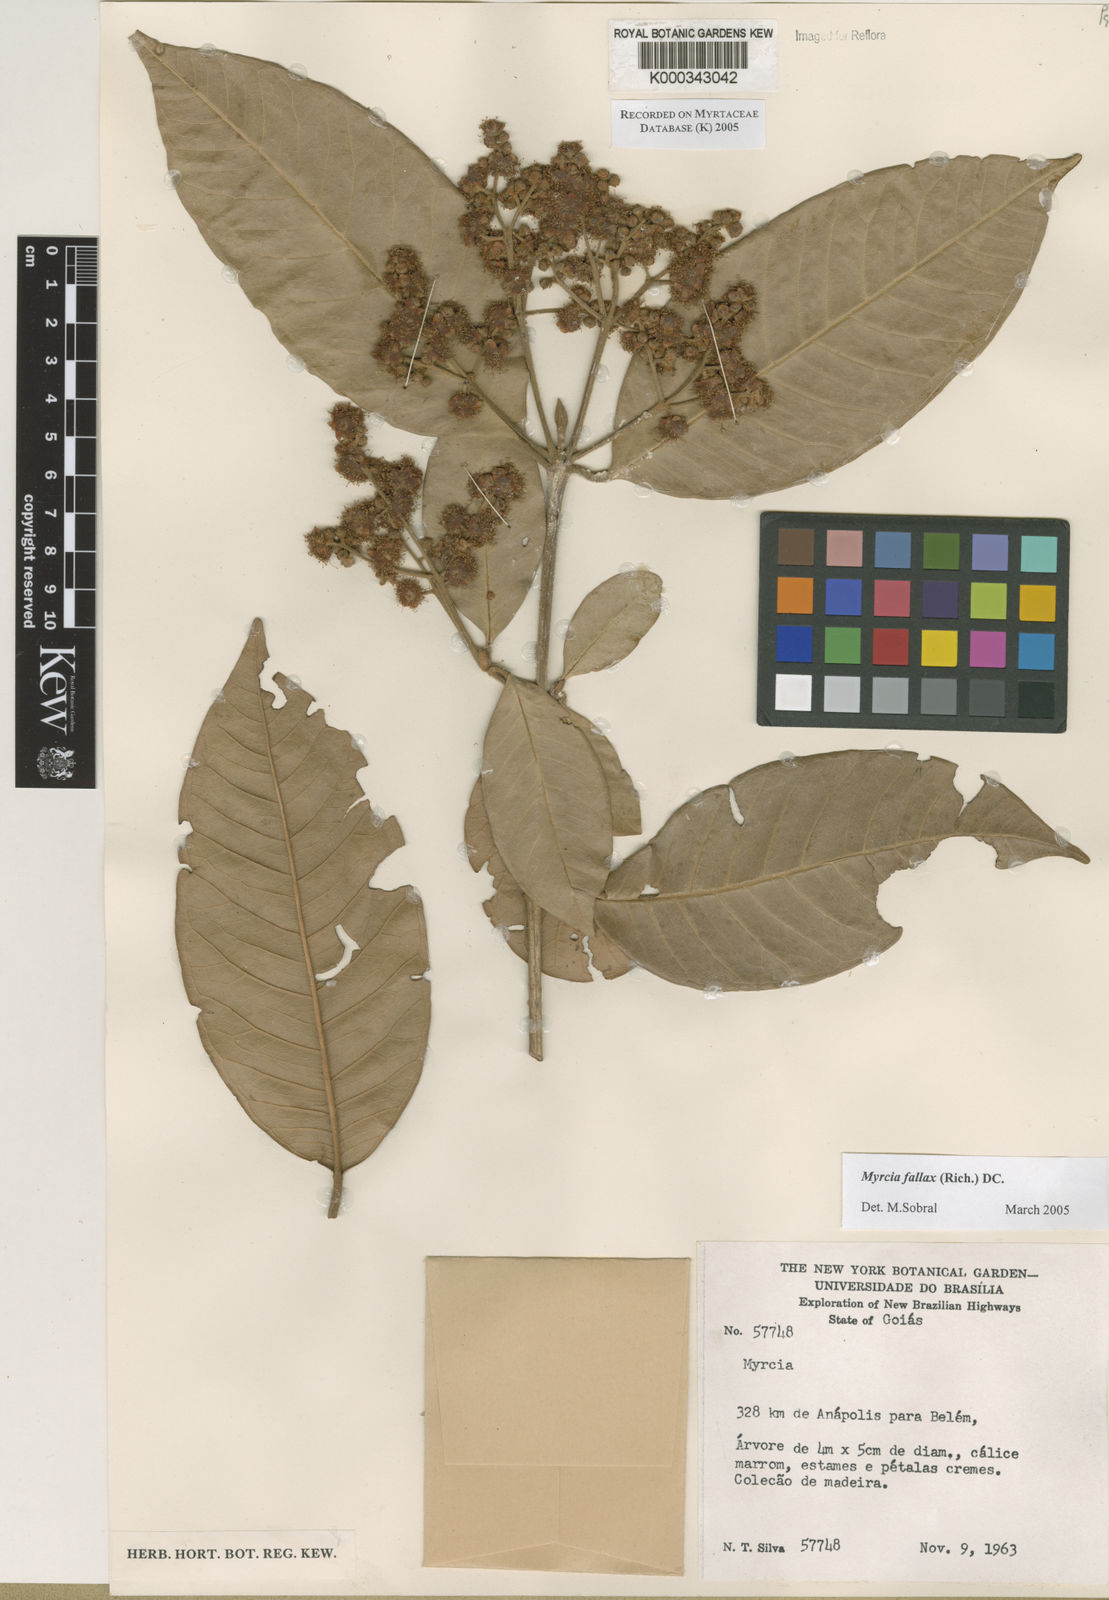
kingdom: Plantae
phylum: Tracheophyta
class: Magnoliopsida
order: Myrtales
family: Myrtaceae
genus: Myrcia
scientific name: Myrcia splendens
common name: Surinam cherry
